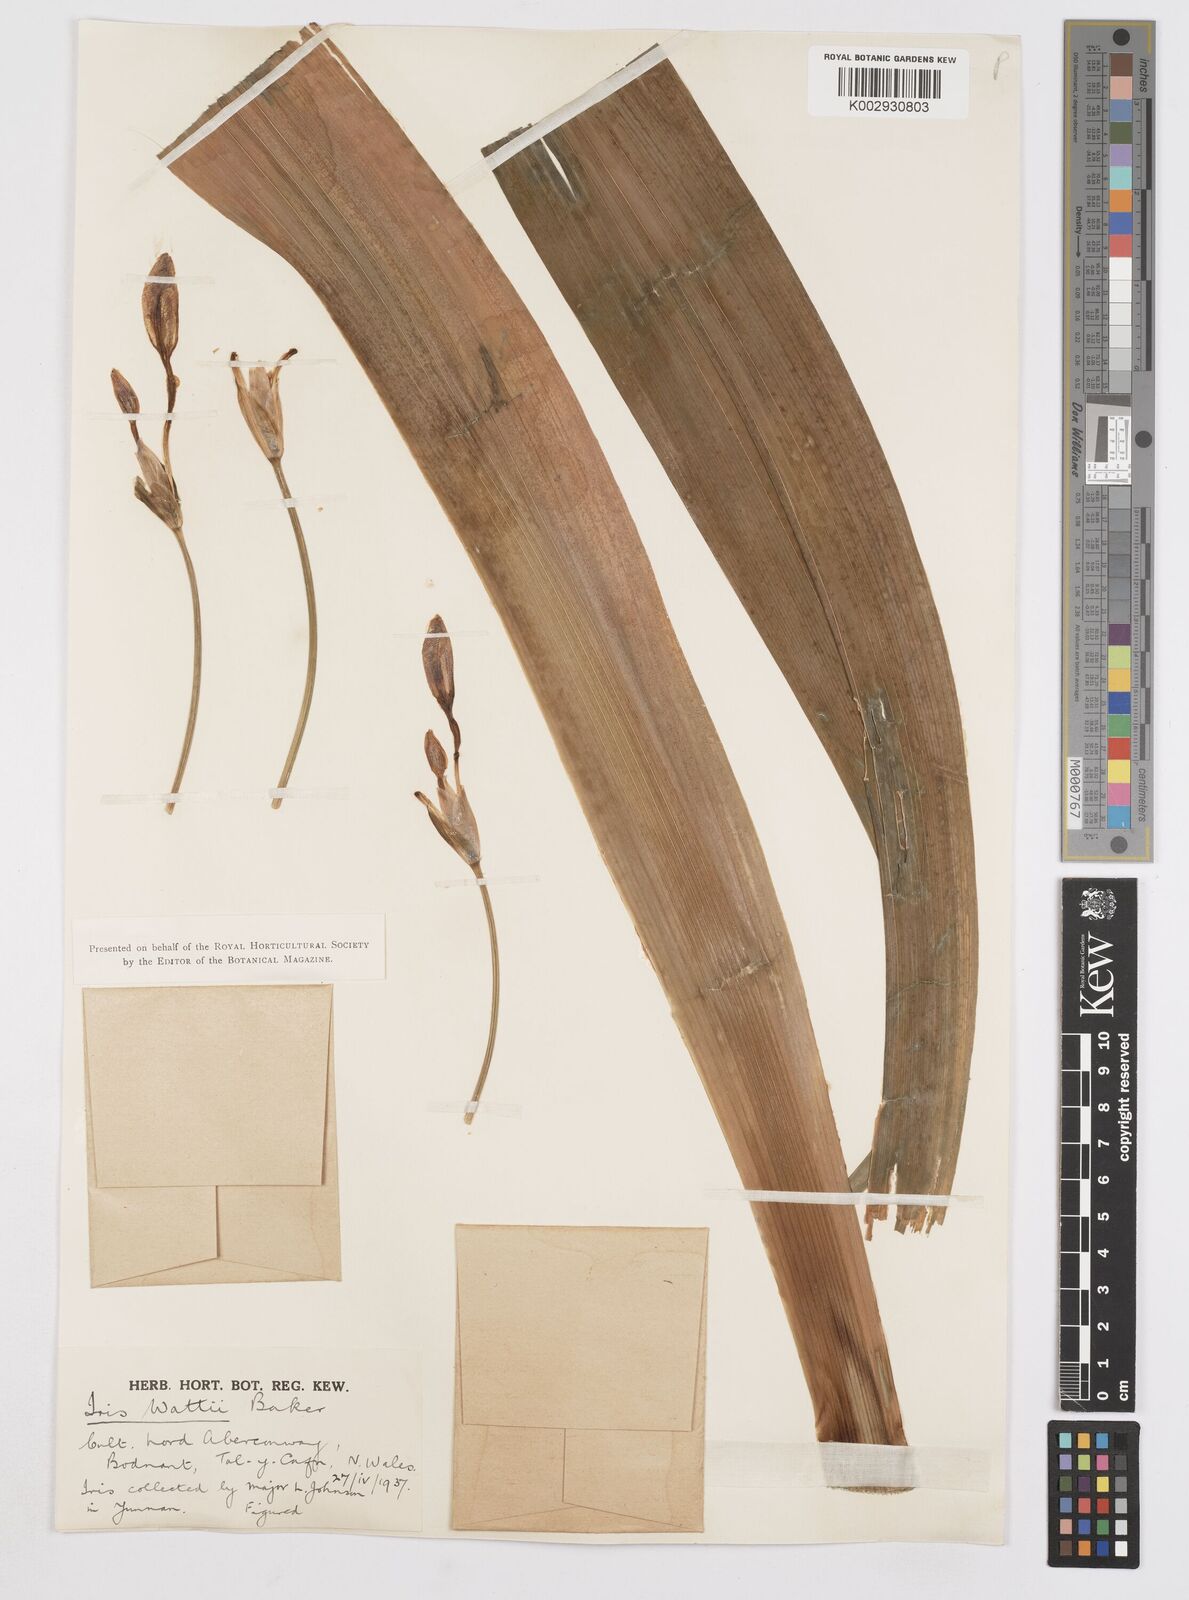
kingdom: Plantae
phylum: Tracheophyta
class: Liliopsida
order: Asparagales
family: Iridaceae
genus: Iris
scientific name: Iris wattii
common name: Fan-shape iris
